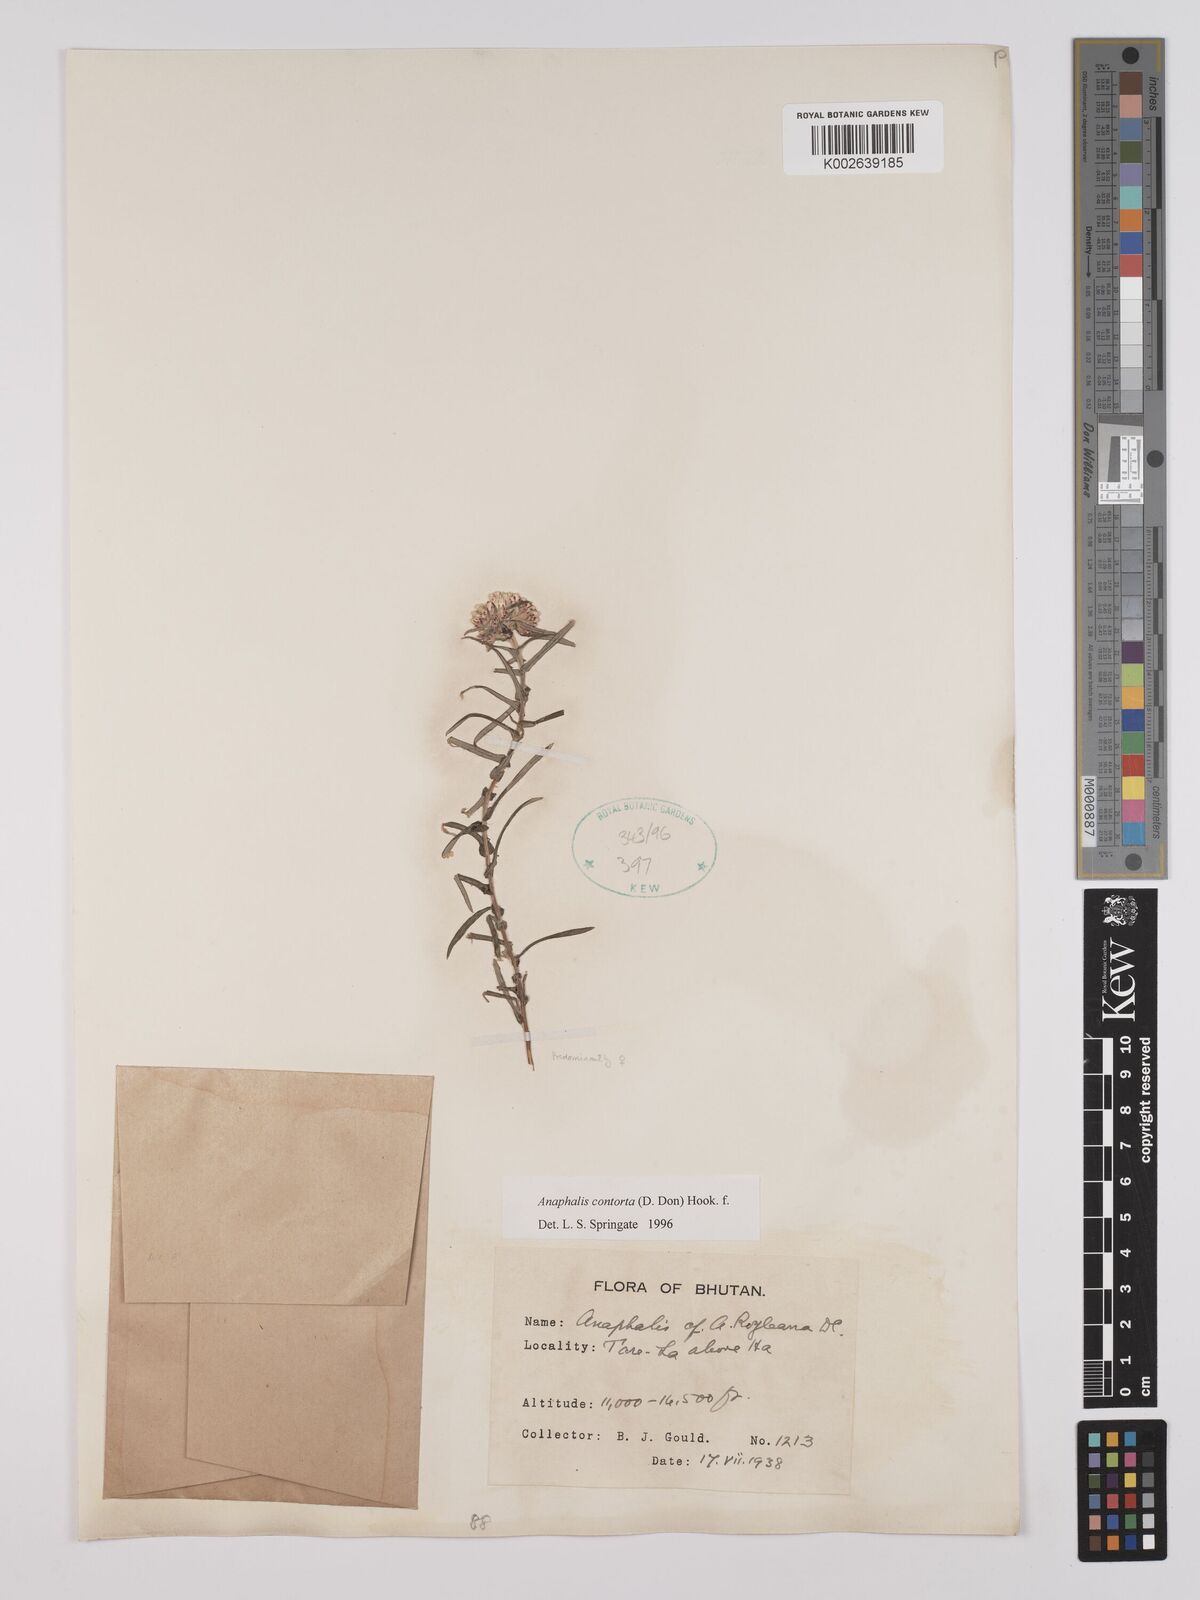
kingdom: Plantae
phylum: Tracheophyta
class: Magnoliopsida
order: Asterales
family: Asteraceae
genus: Anaphalis
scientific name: Anaphalis contorta
